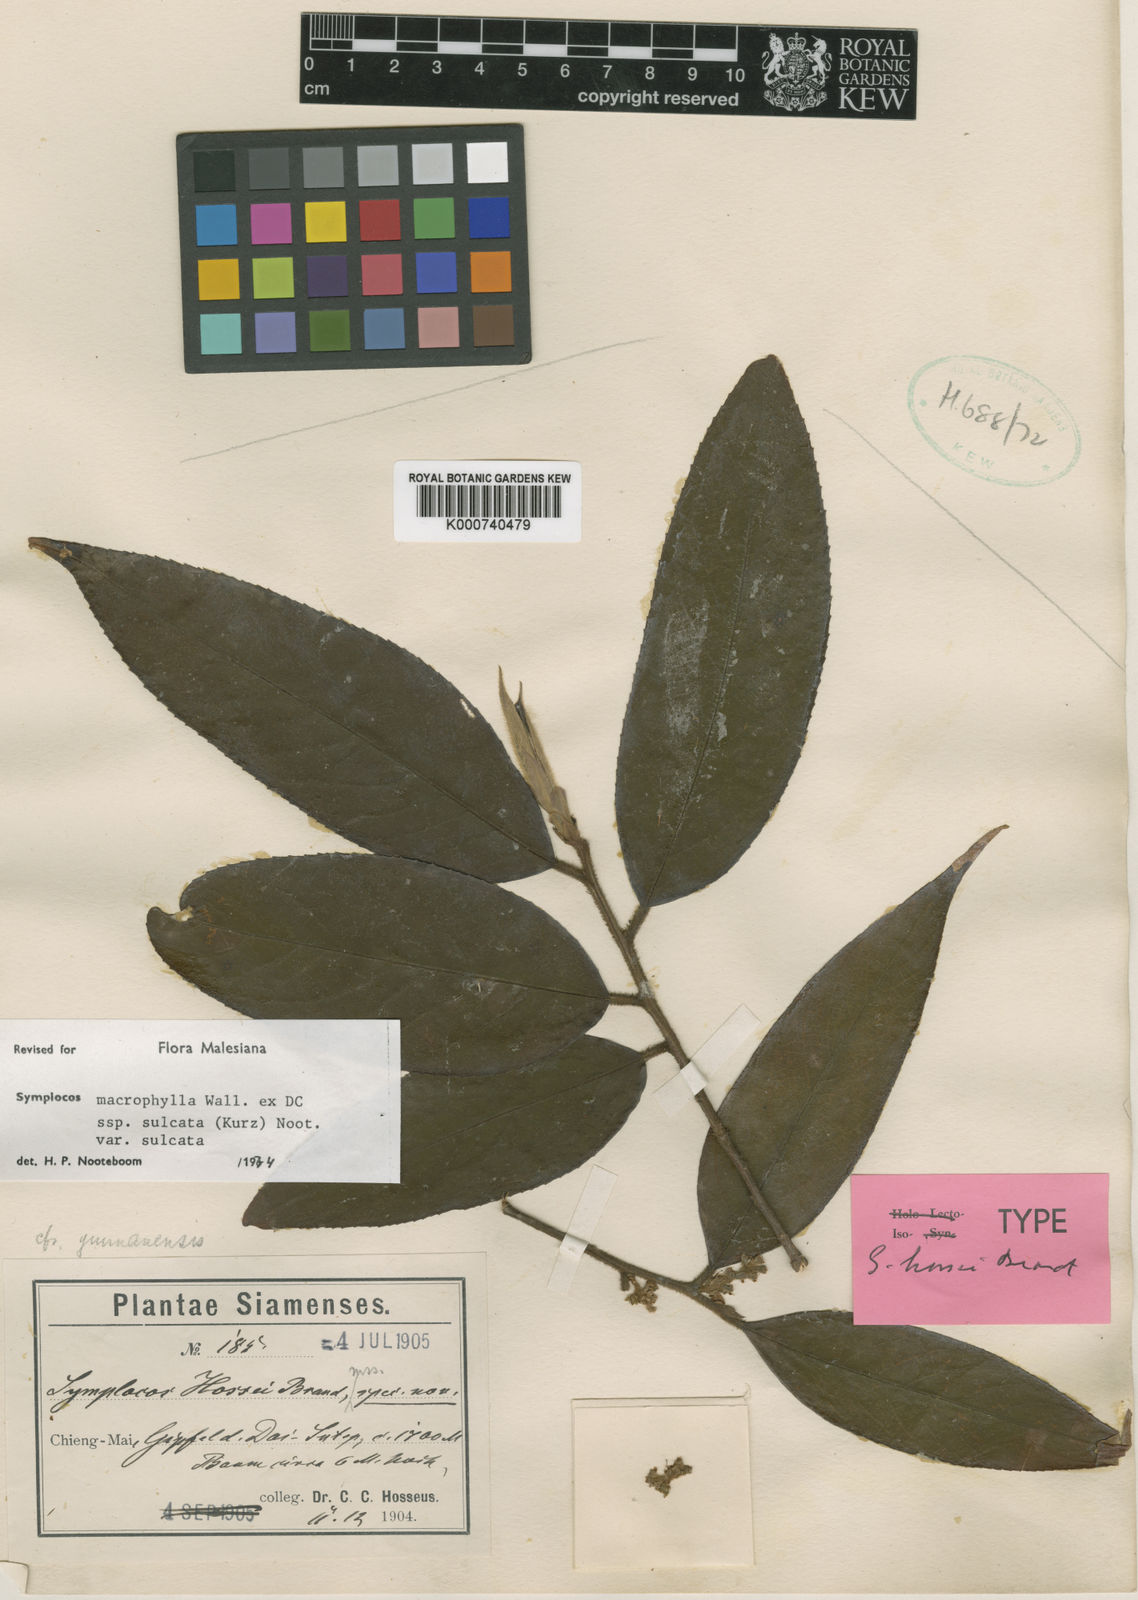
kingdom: Plantae
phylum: Tracheophyta
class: Magnoliopsida
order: Ericales
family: Symplocaceae
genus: Symplocos
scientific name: Symplocos sulcata
